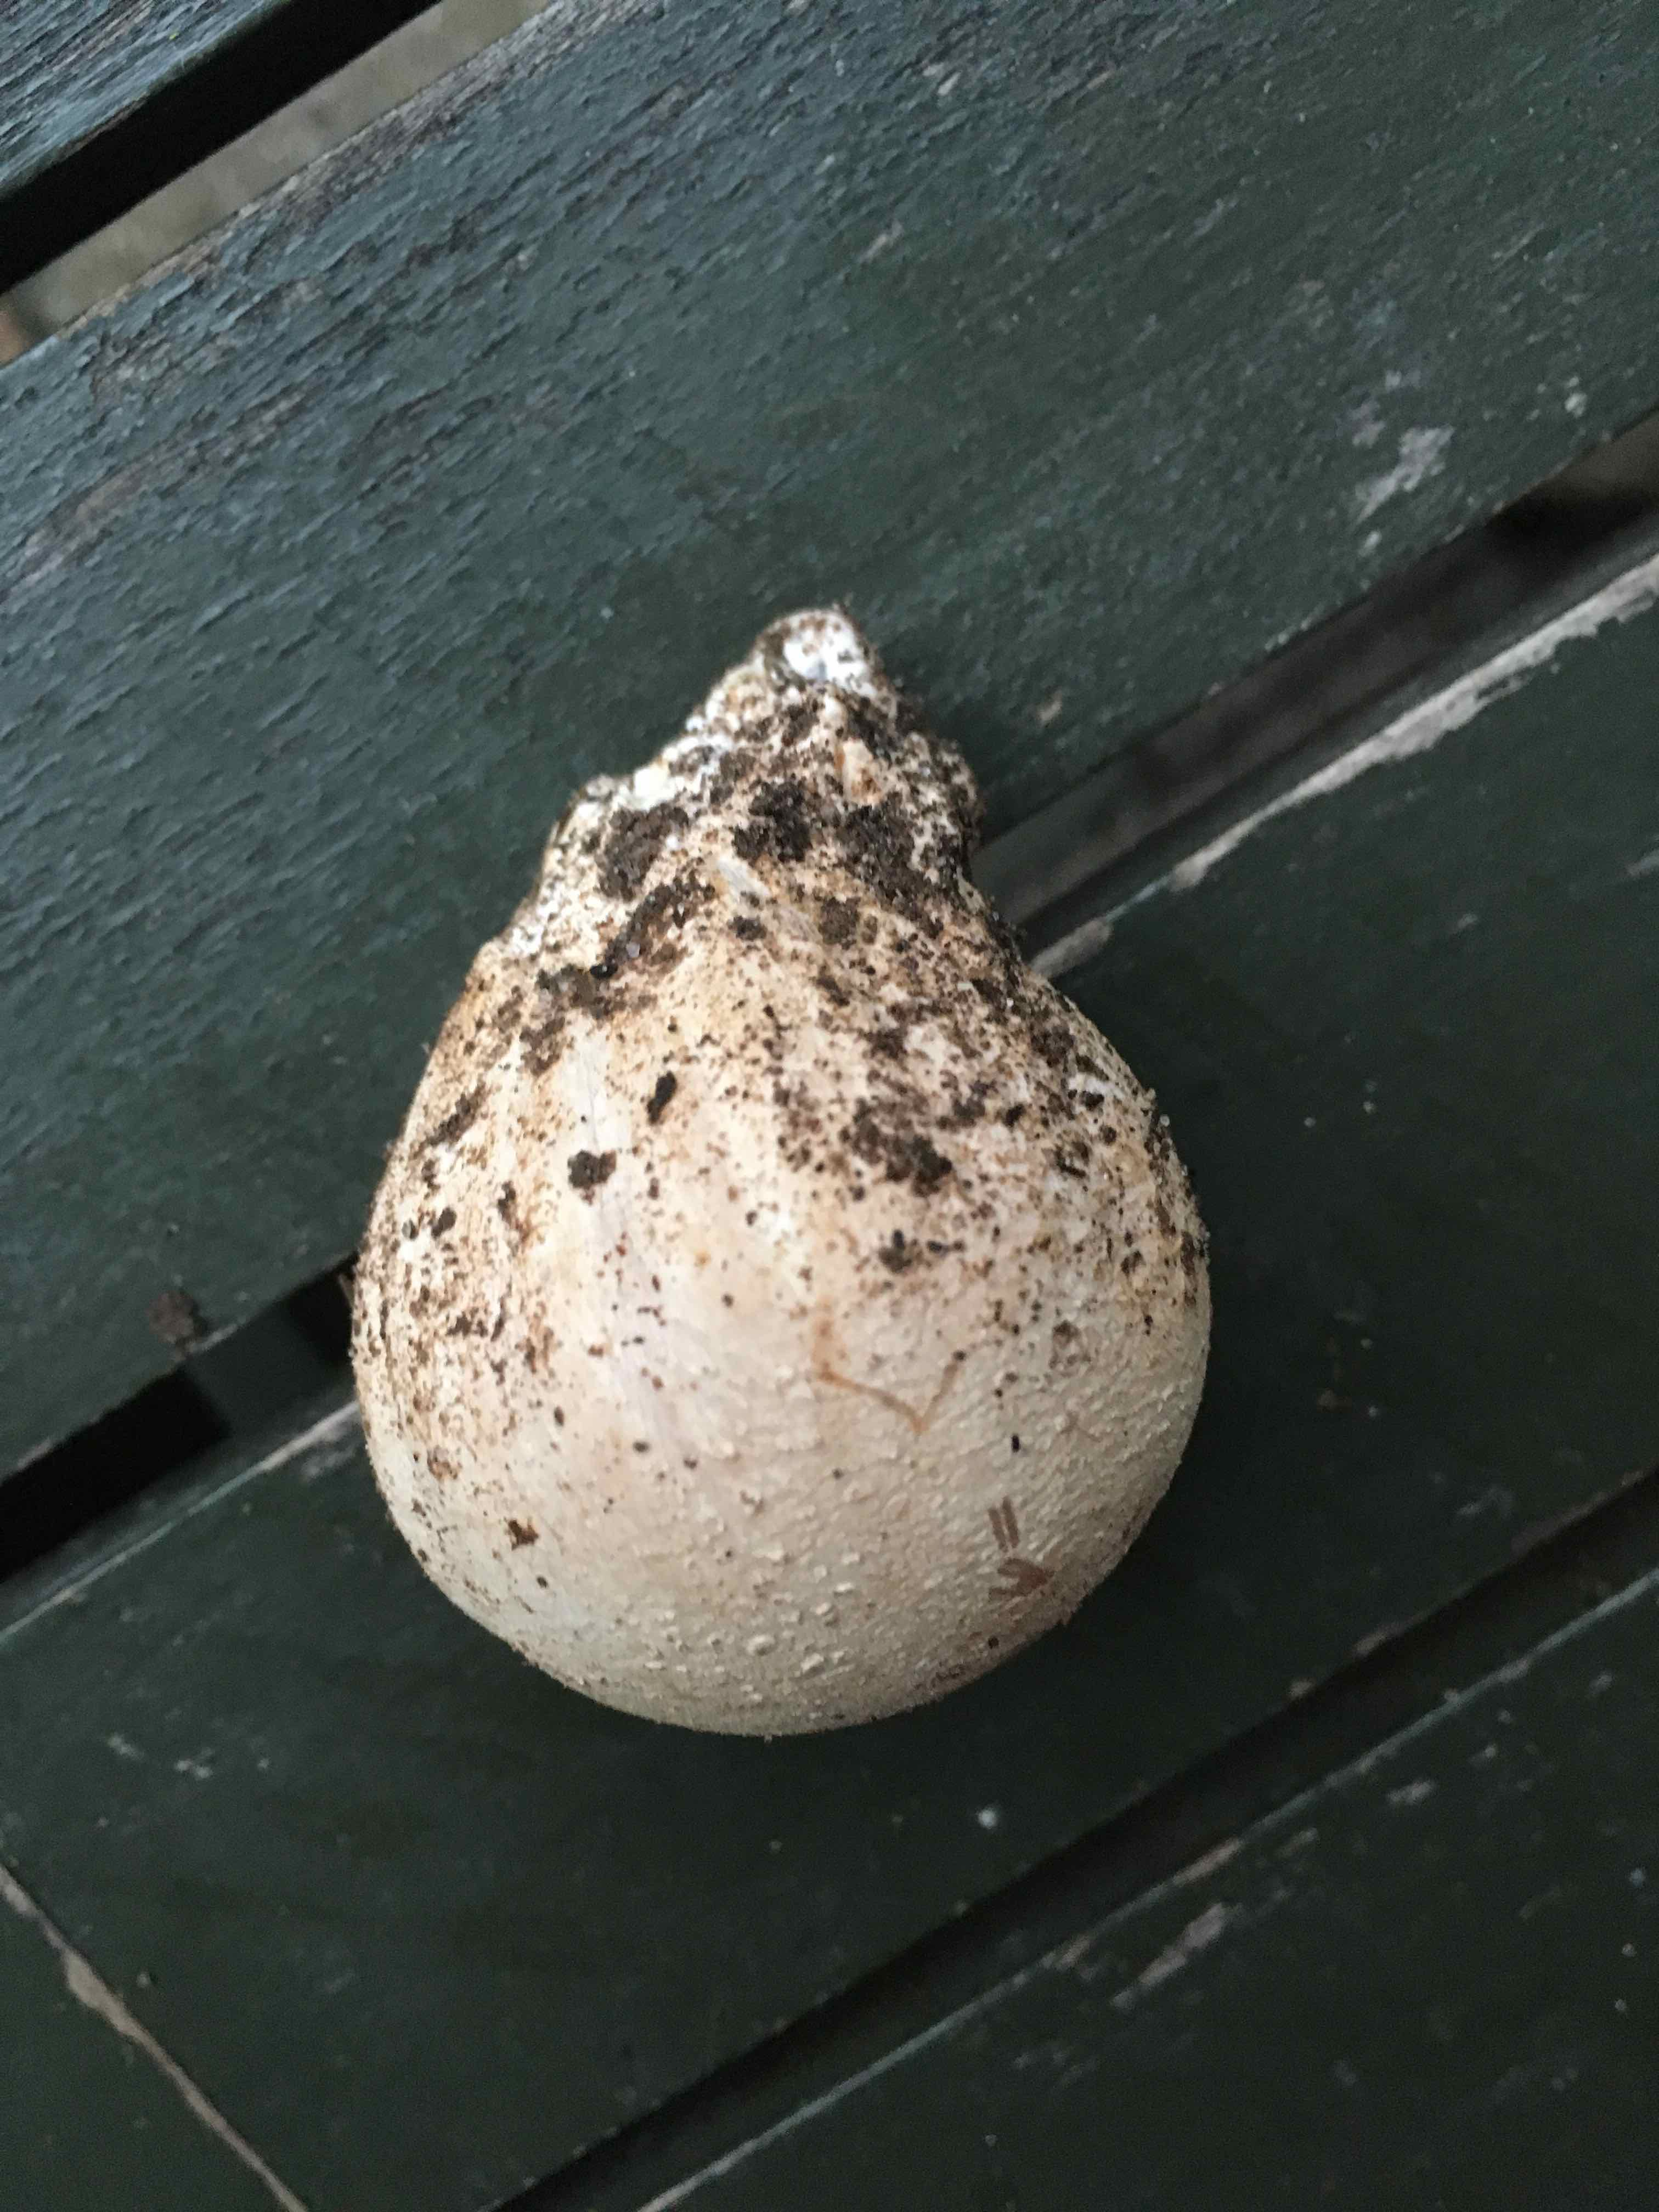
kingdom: Fungi
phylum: Basidiomycota
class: Agaricomycetes
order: Phallales
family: Phallaceae
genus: Phallus
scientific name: Phallus impudicus
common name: almindelig stinksvamp
